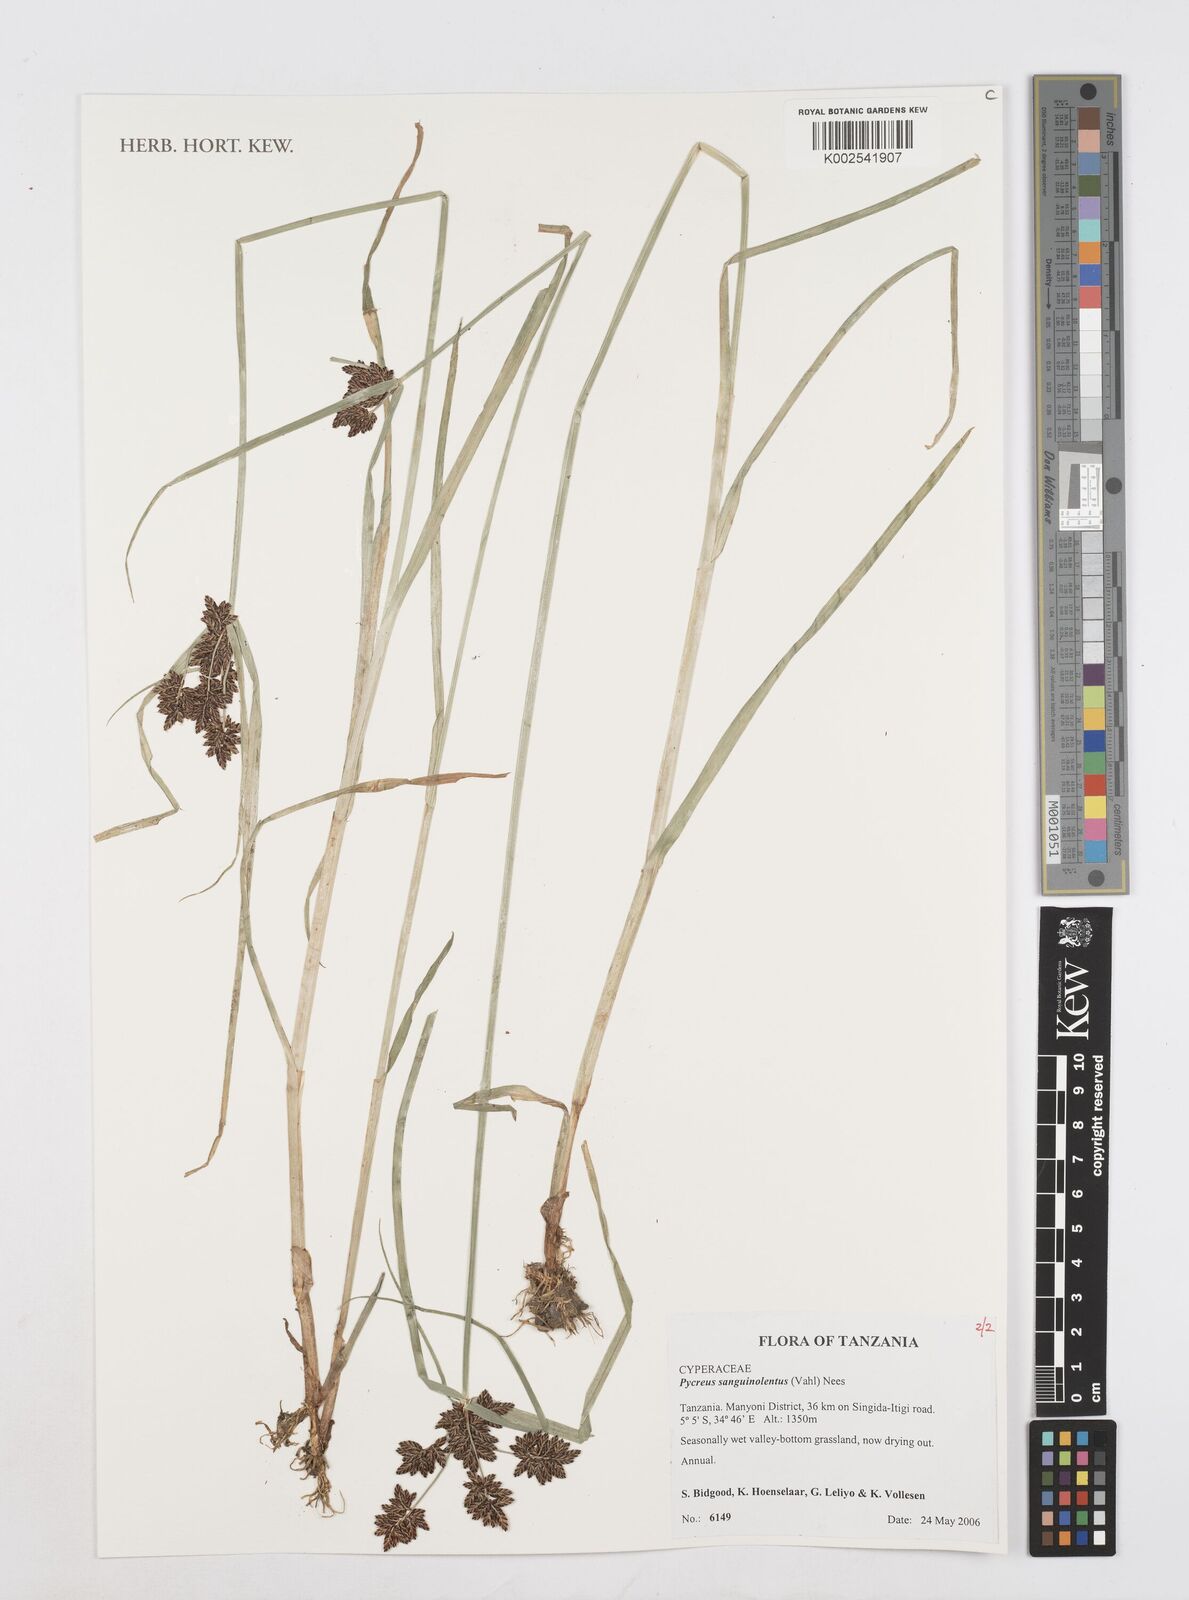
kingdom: Plantae
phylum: Tracheophyta
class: Liliopsida
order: Poales
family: Cyperaceae
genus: Cyperus
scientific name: Cyperus sanguinolentus
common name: Purpleglume flatsedge
